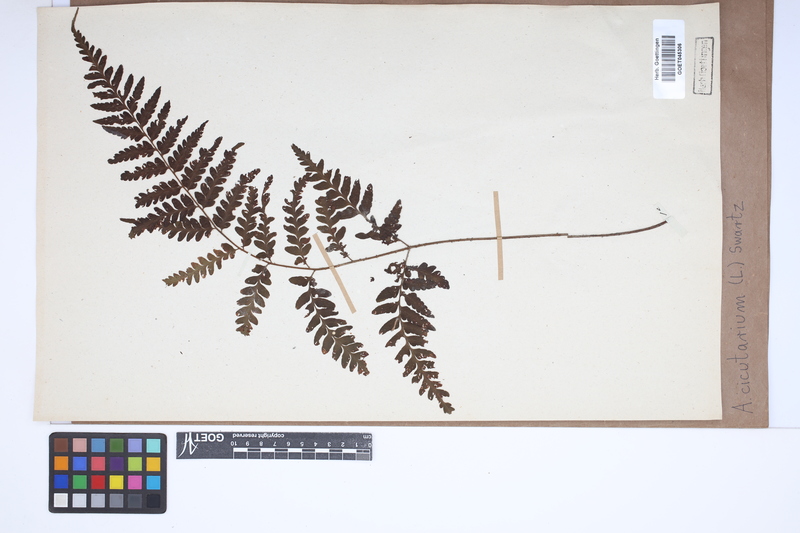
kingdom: Plantae
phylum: Tracheophyta
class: Polypodiopsida
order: Polypodiales
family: Tectariaceae
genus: Tectaria
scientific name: Tectaria cicutaria
